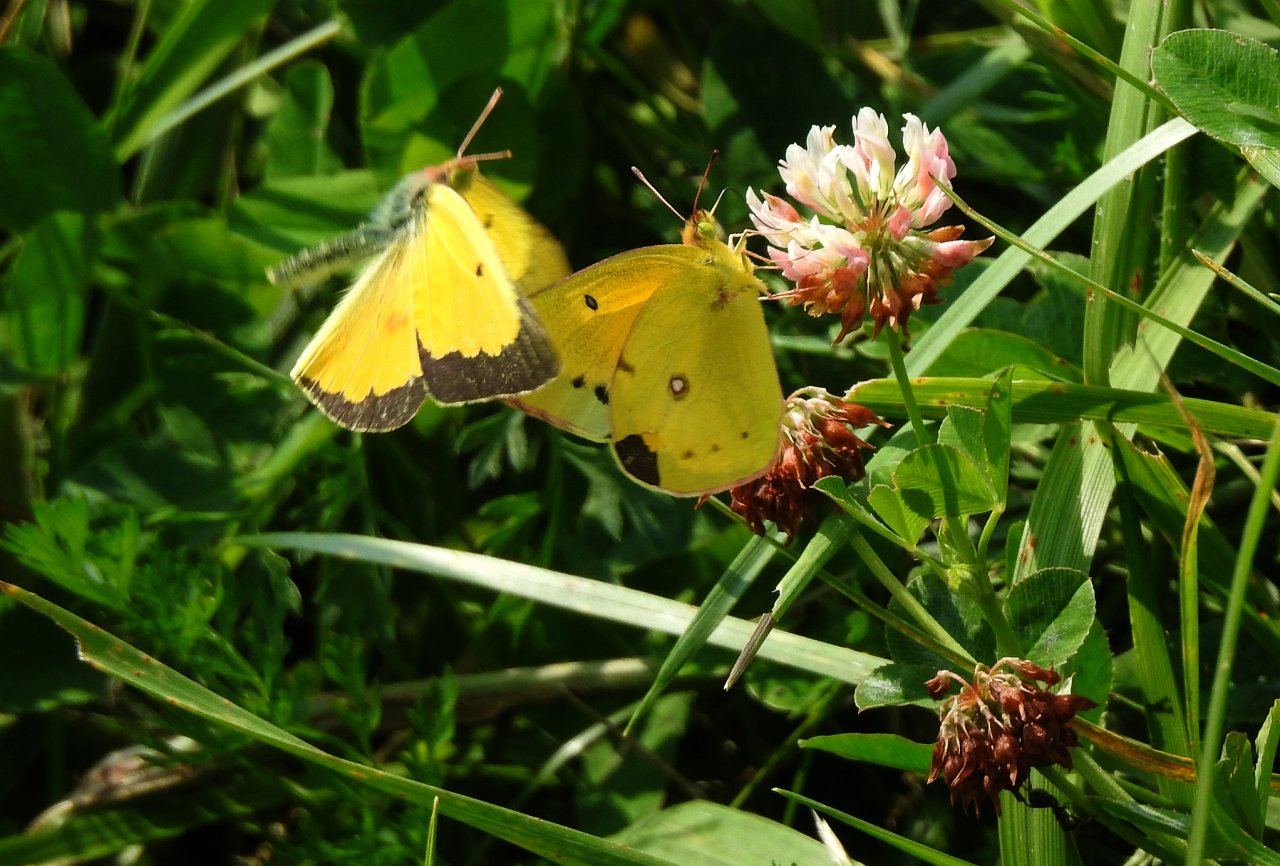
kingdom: Animalia
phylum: Arthropoda
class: Insecta
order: Lepidoptera
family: Pieridae
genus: Colias
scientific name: Colias eurytheme
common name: Orange Sulphur
